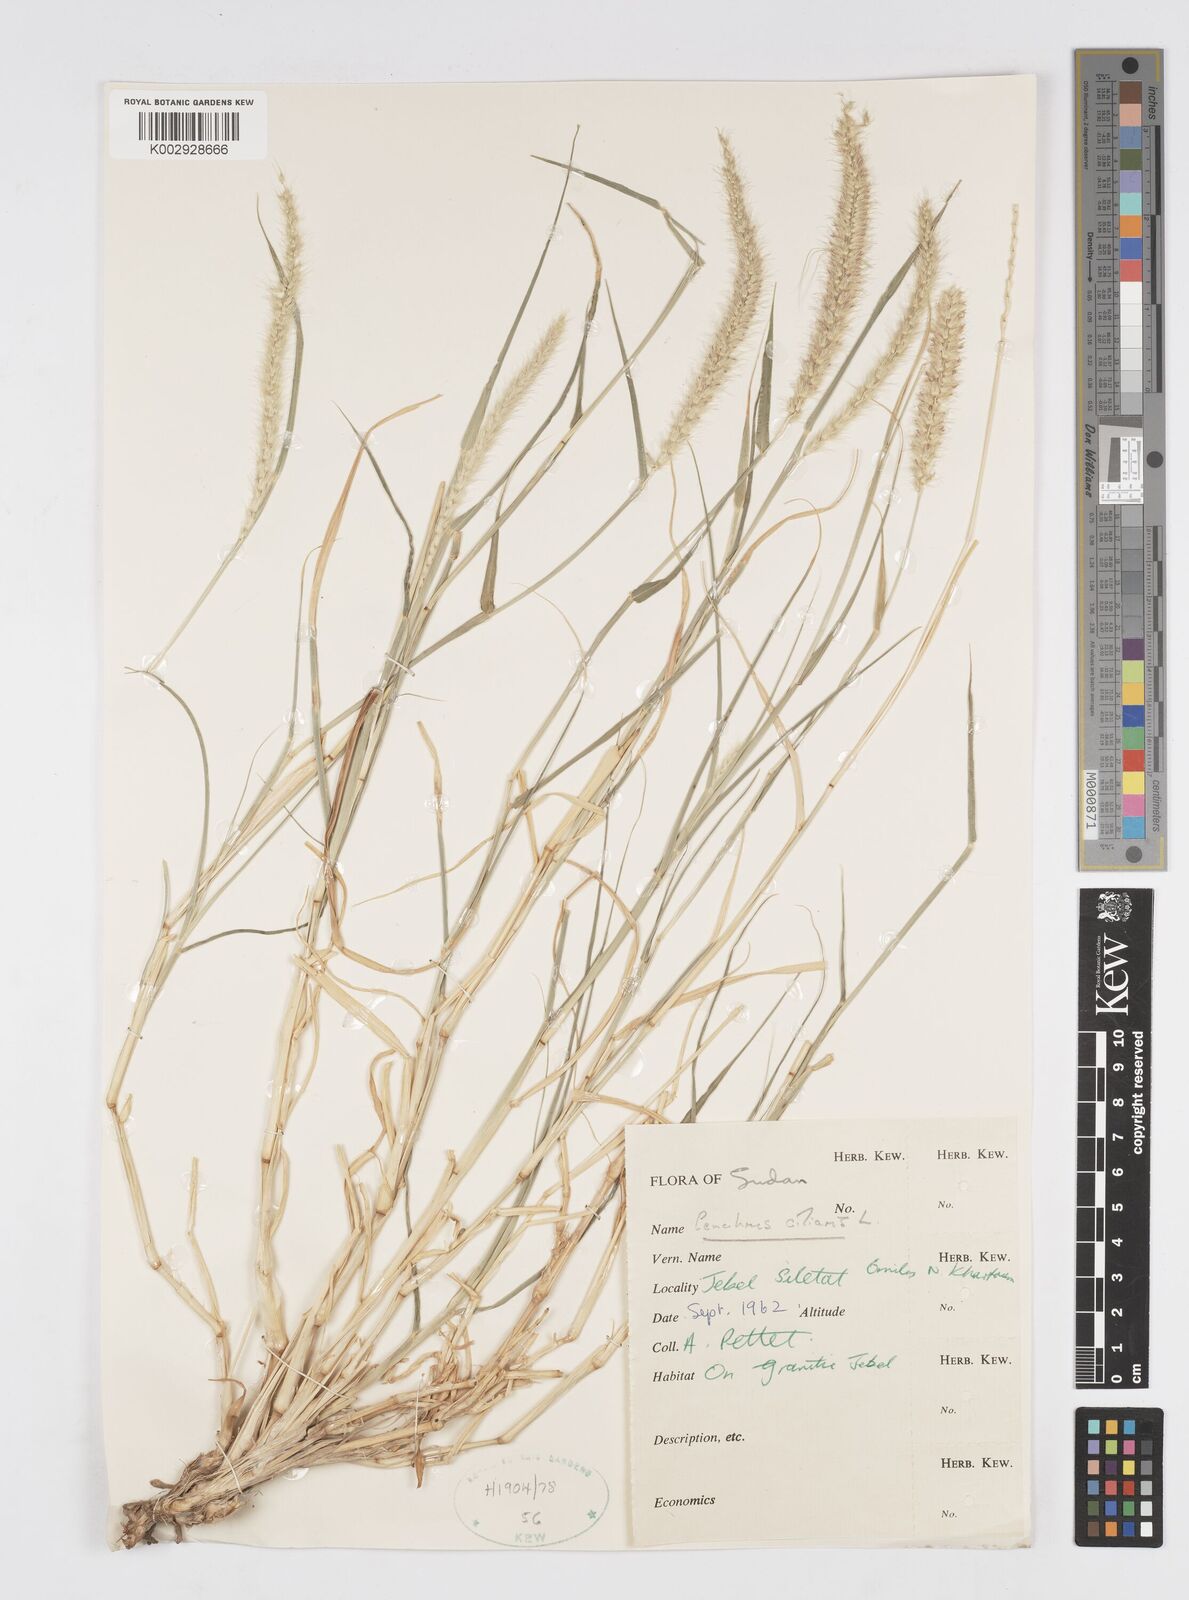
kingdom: Plantae
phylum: Tracheophyta
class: Liliopsida
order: Poales
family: Poaceae
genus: Cenchrus
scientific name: Cenchrus ciliaris
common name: Buffelgrass
